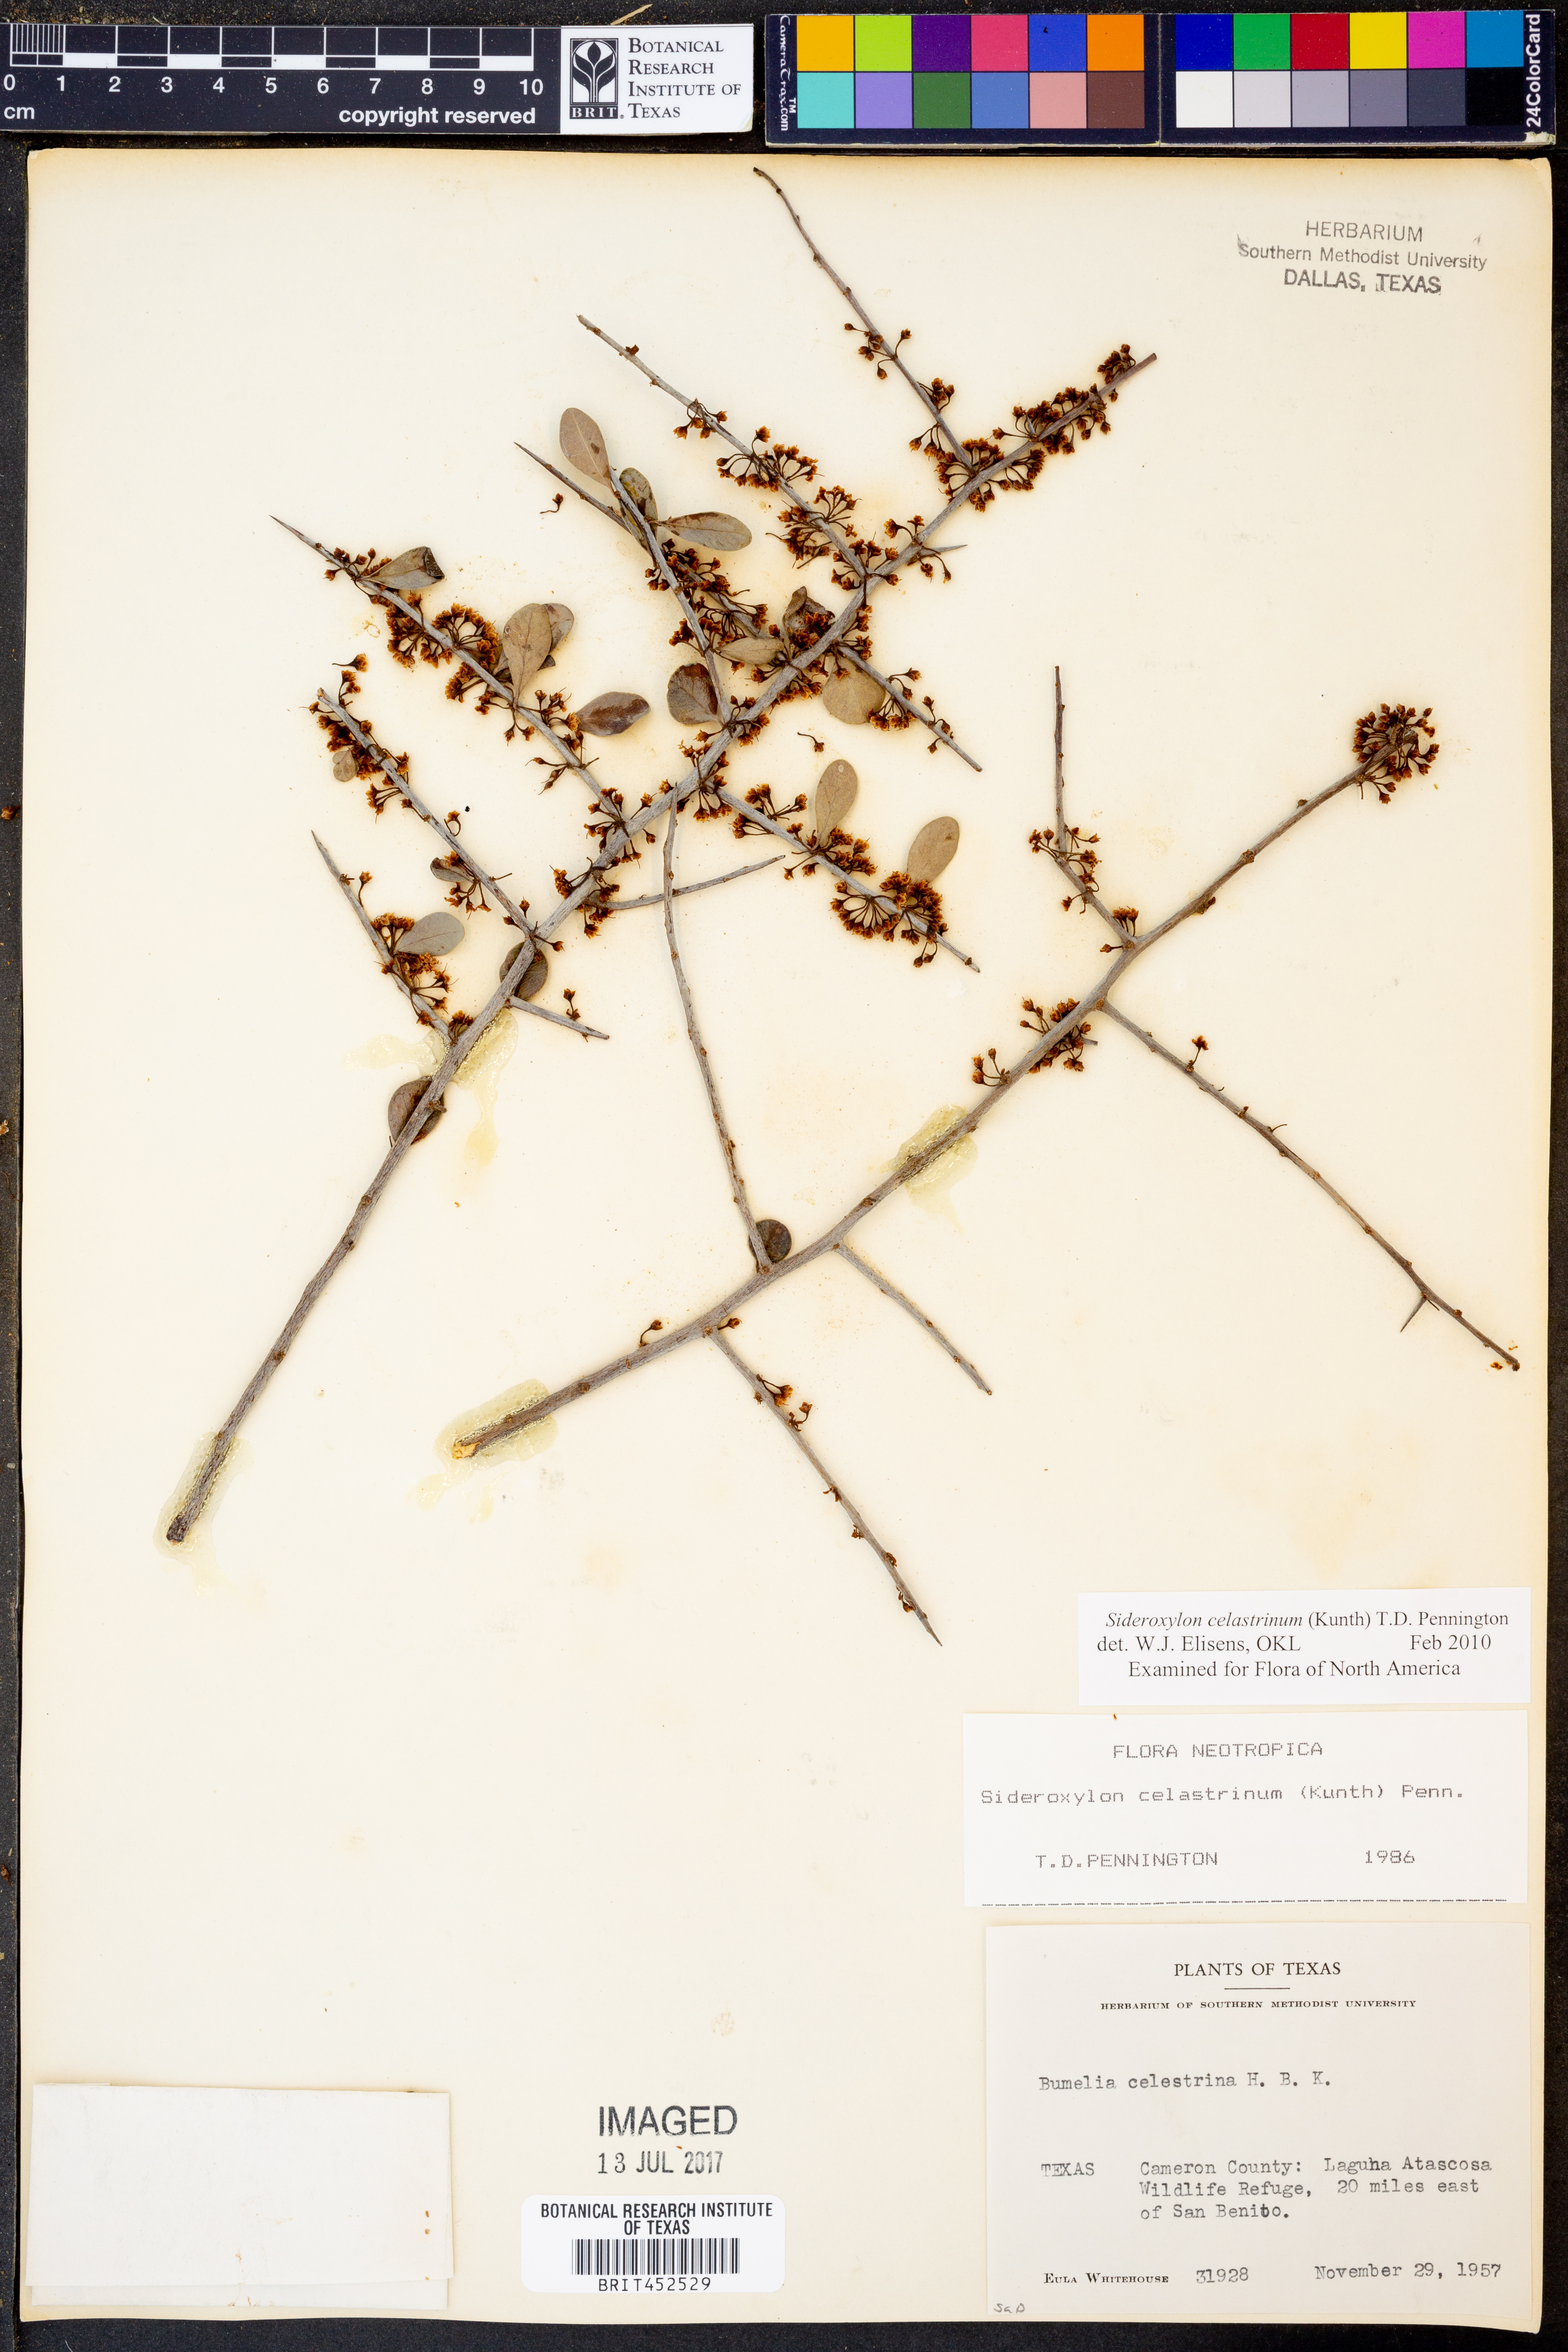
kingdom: Plantae
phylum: Tracheophyta
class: Magnoliopsida
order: Ericales
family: Sapotaceae
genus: Sideroxylon
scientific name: Sideroxylon celastrinum
